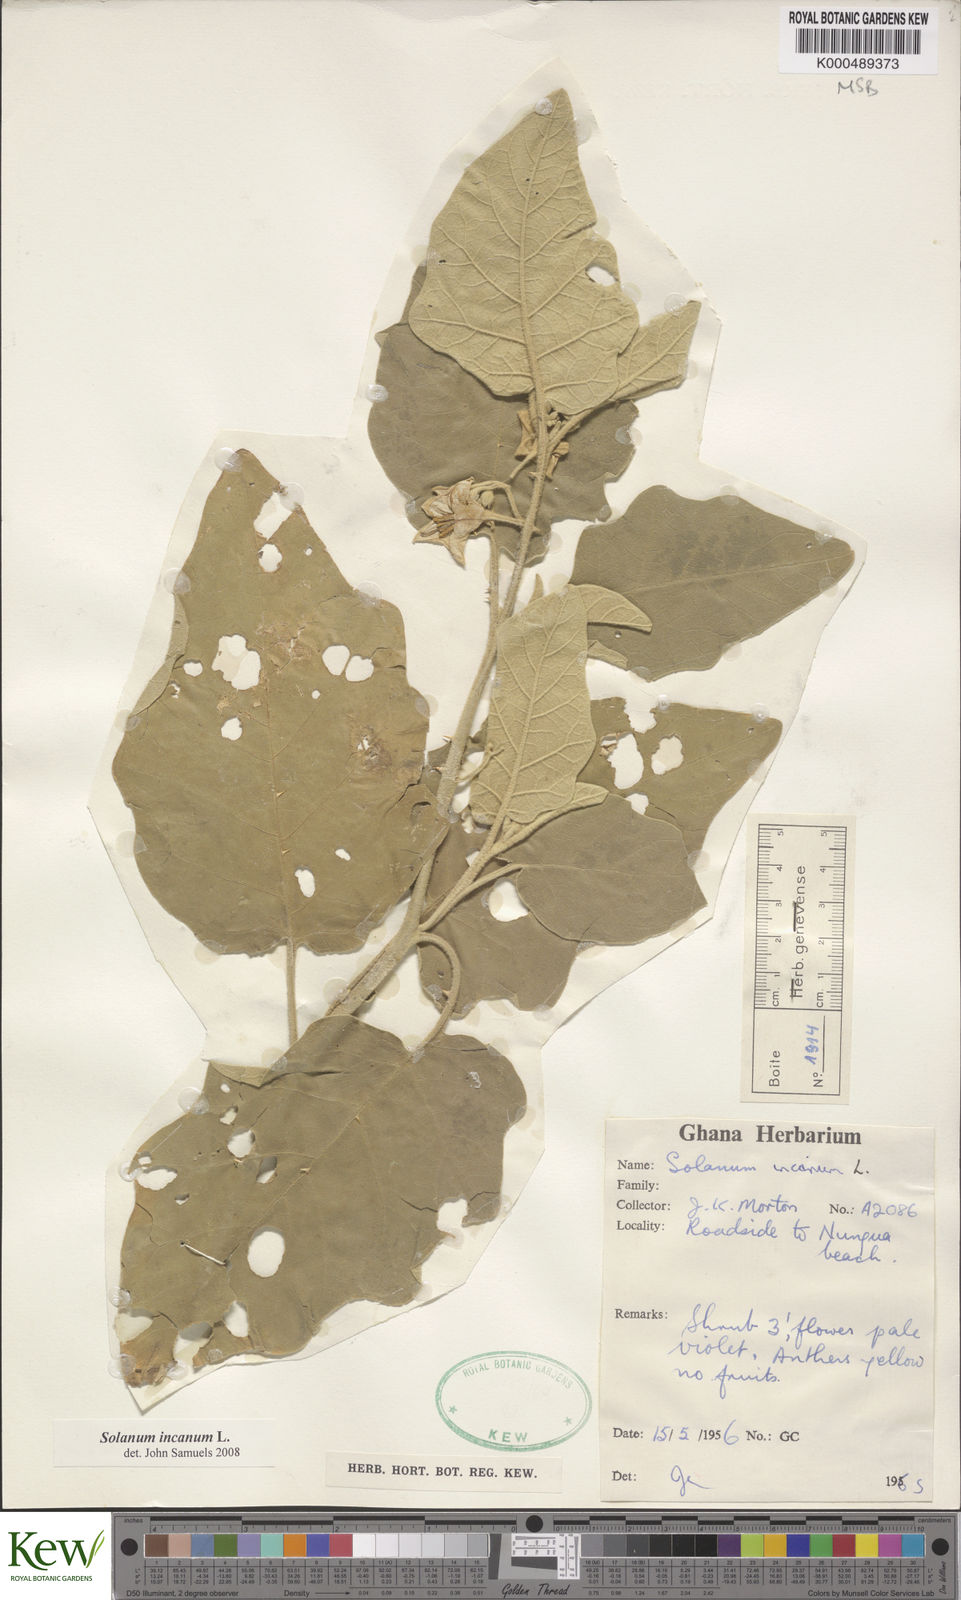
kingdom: Plantae
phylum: Tracheophyta
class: Magnoliopsida
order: Solanales
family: Solanaceae
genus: Solanum
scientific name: Solanum incanum
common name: Bitter apple
